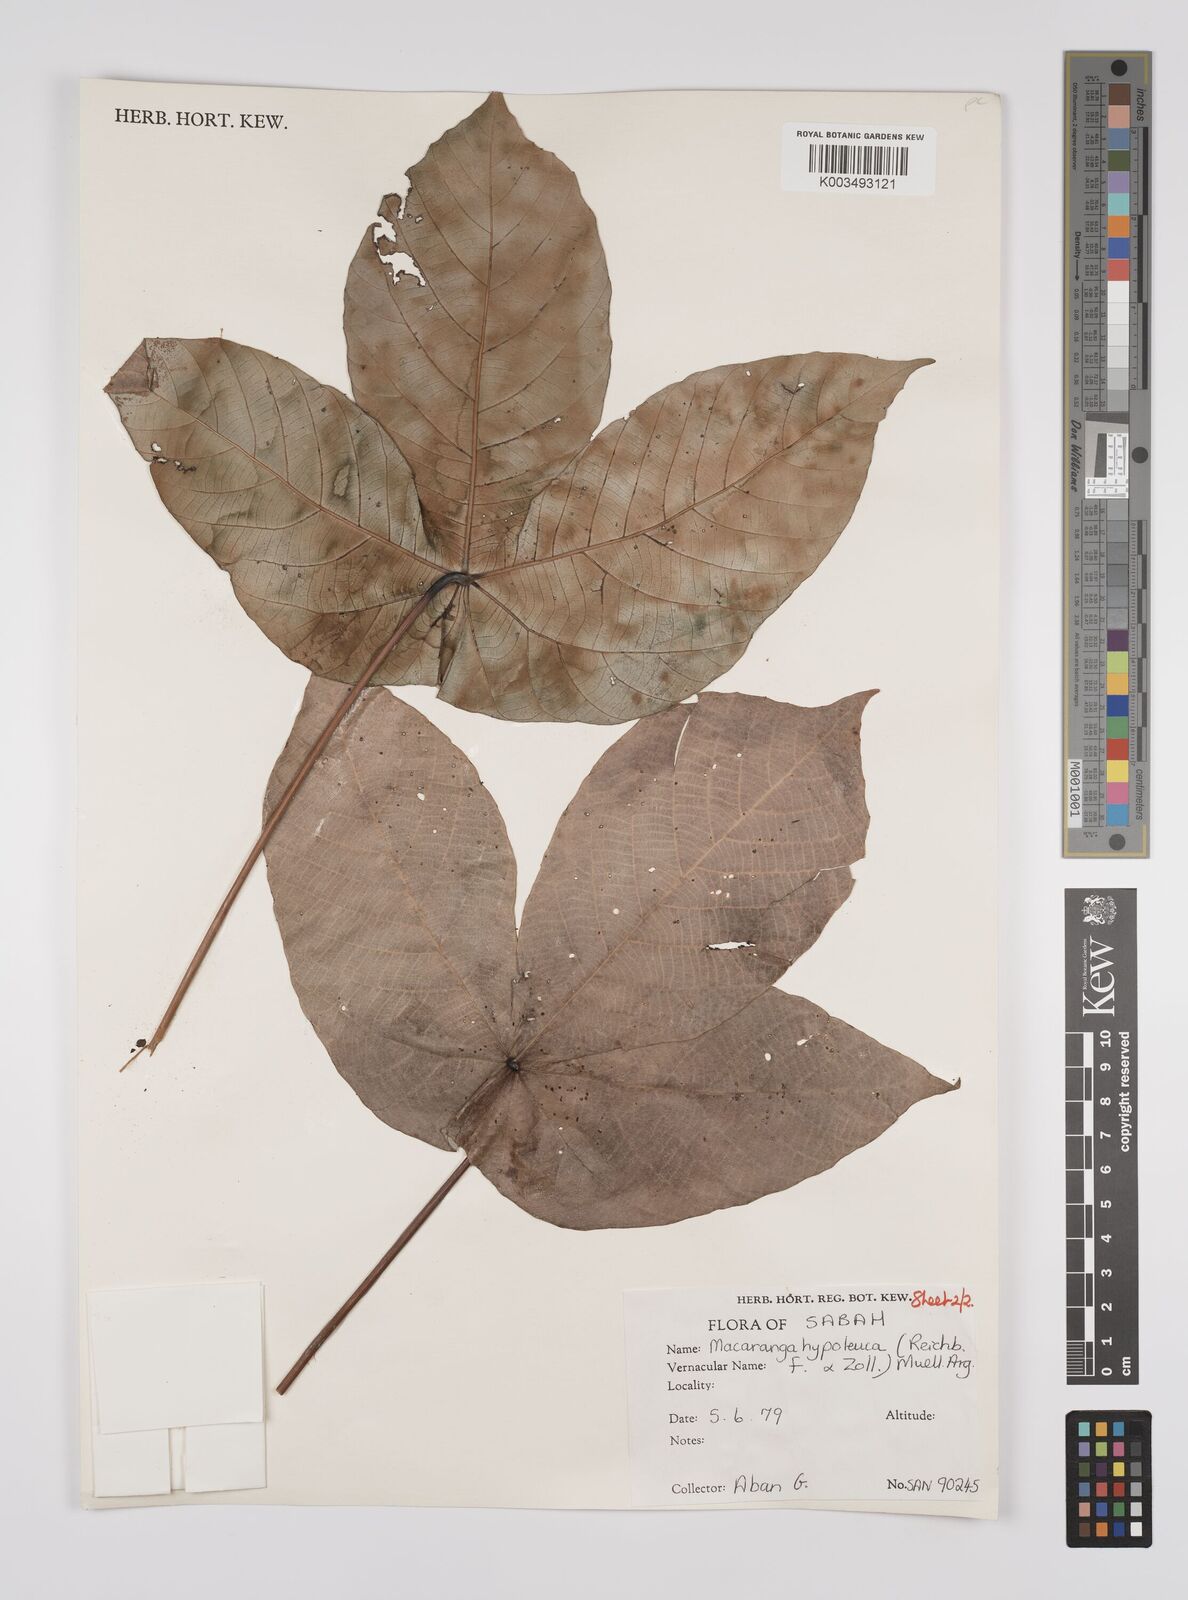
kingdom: Plantae
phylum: Tracheophyta
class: Magnoliopsida
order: Malpighiales
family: Euphorbiaceae
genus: Macaranga
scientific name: Macaranga hypoleuca
